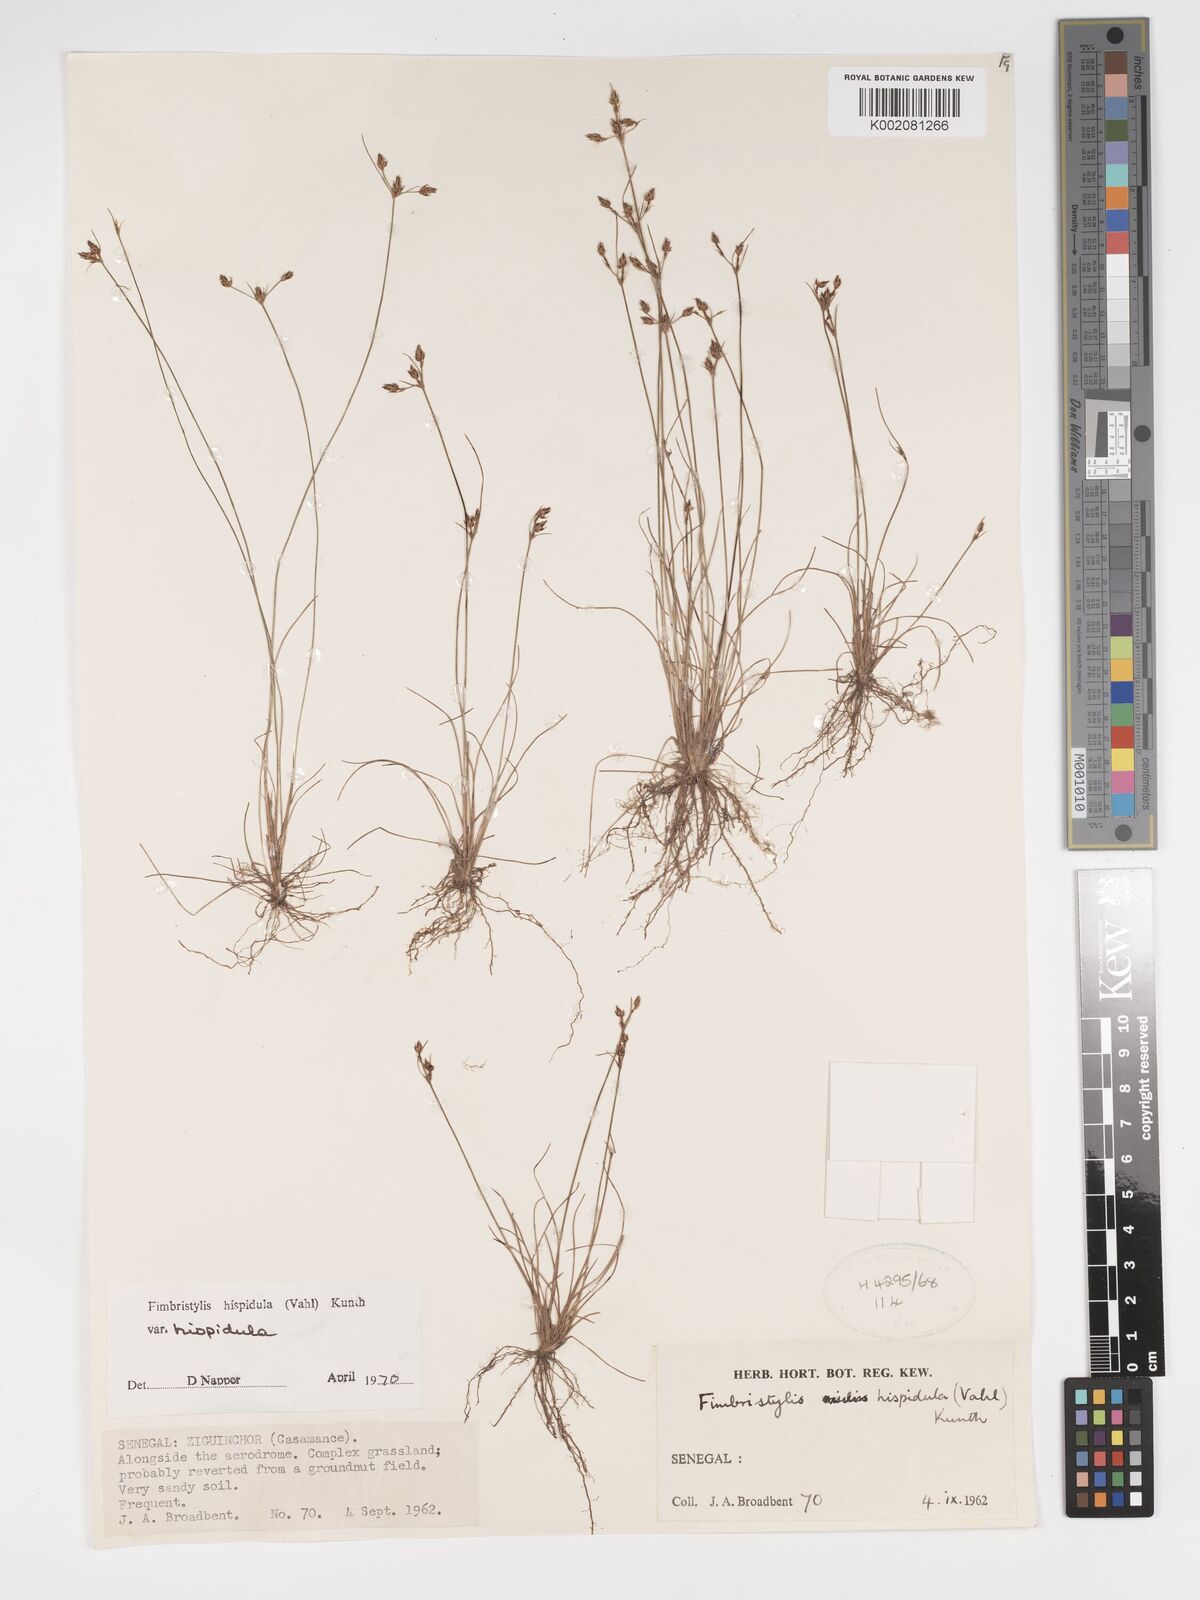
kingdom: Plantae
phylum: Tracheophyta
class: Liliopsida
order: Poales
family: Cyperaceae
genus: Bulbostylis
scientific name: Bulbostylis hispidula
